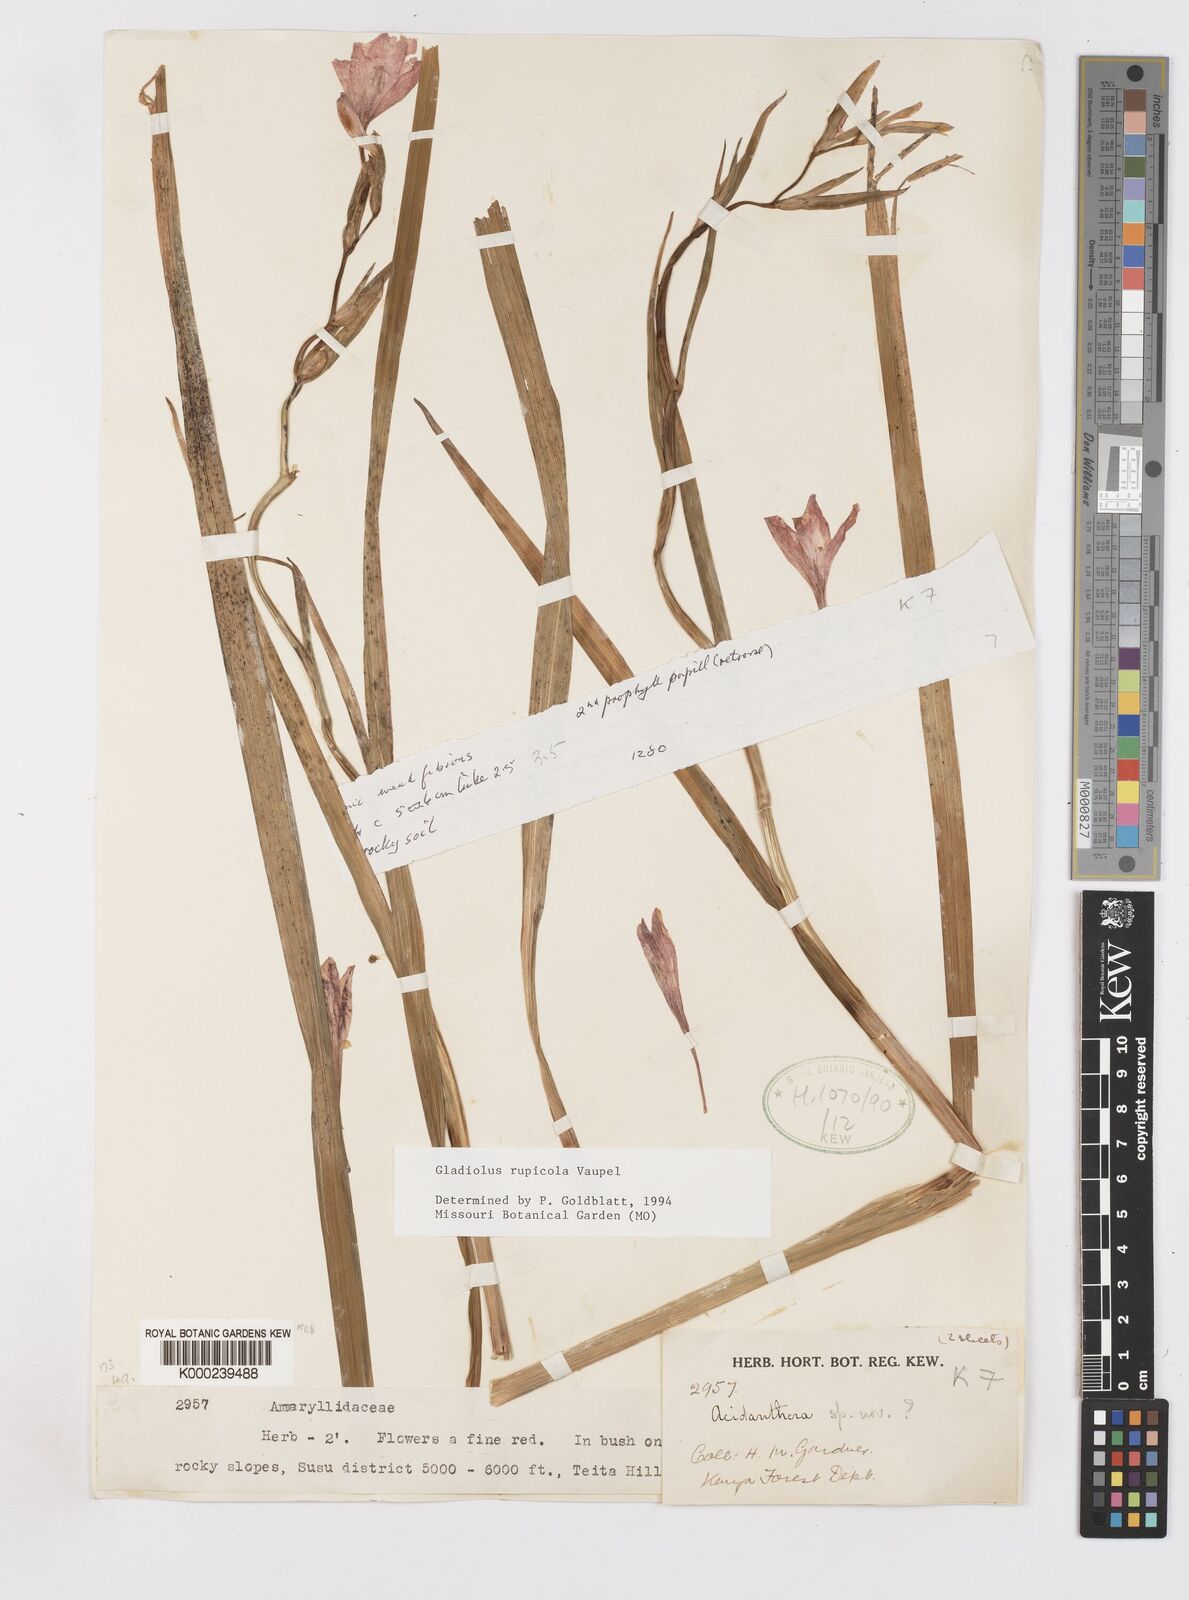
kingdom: Plantae
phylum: Tracheophyta
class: Liliopsida
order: Asparagales
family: Iridaceae
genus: Gladiolus
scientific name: Gladiolus rupicola
